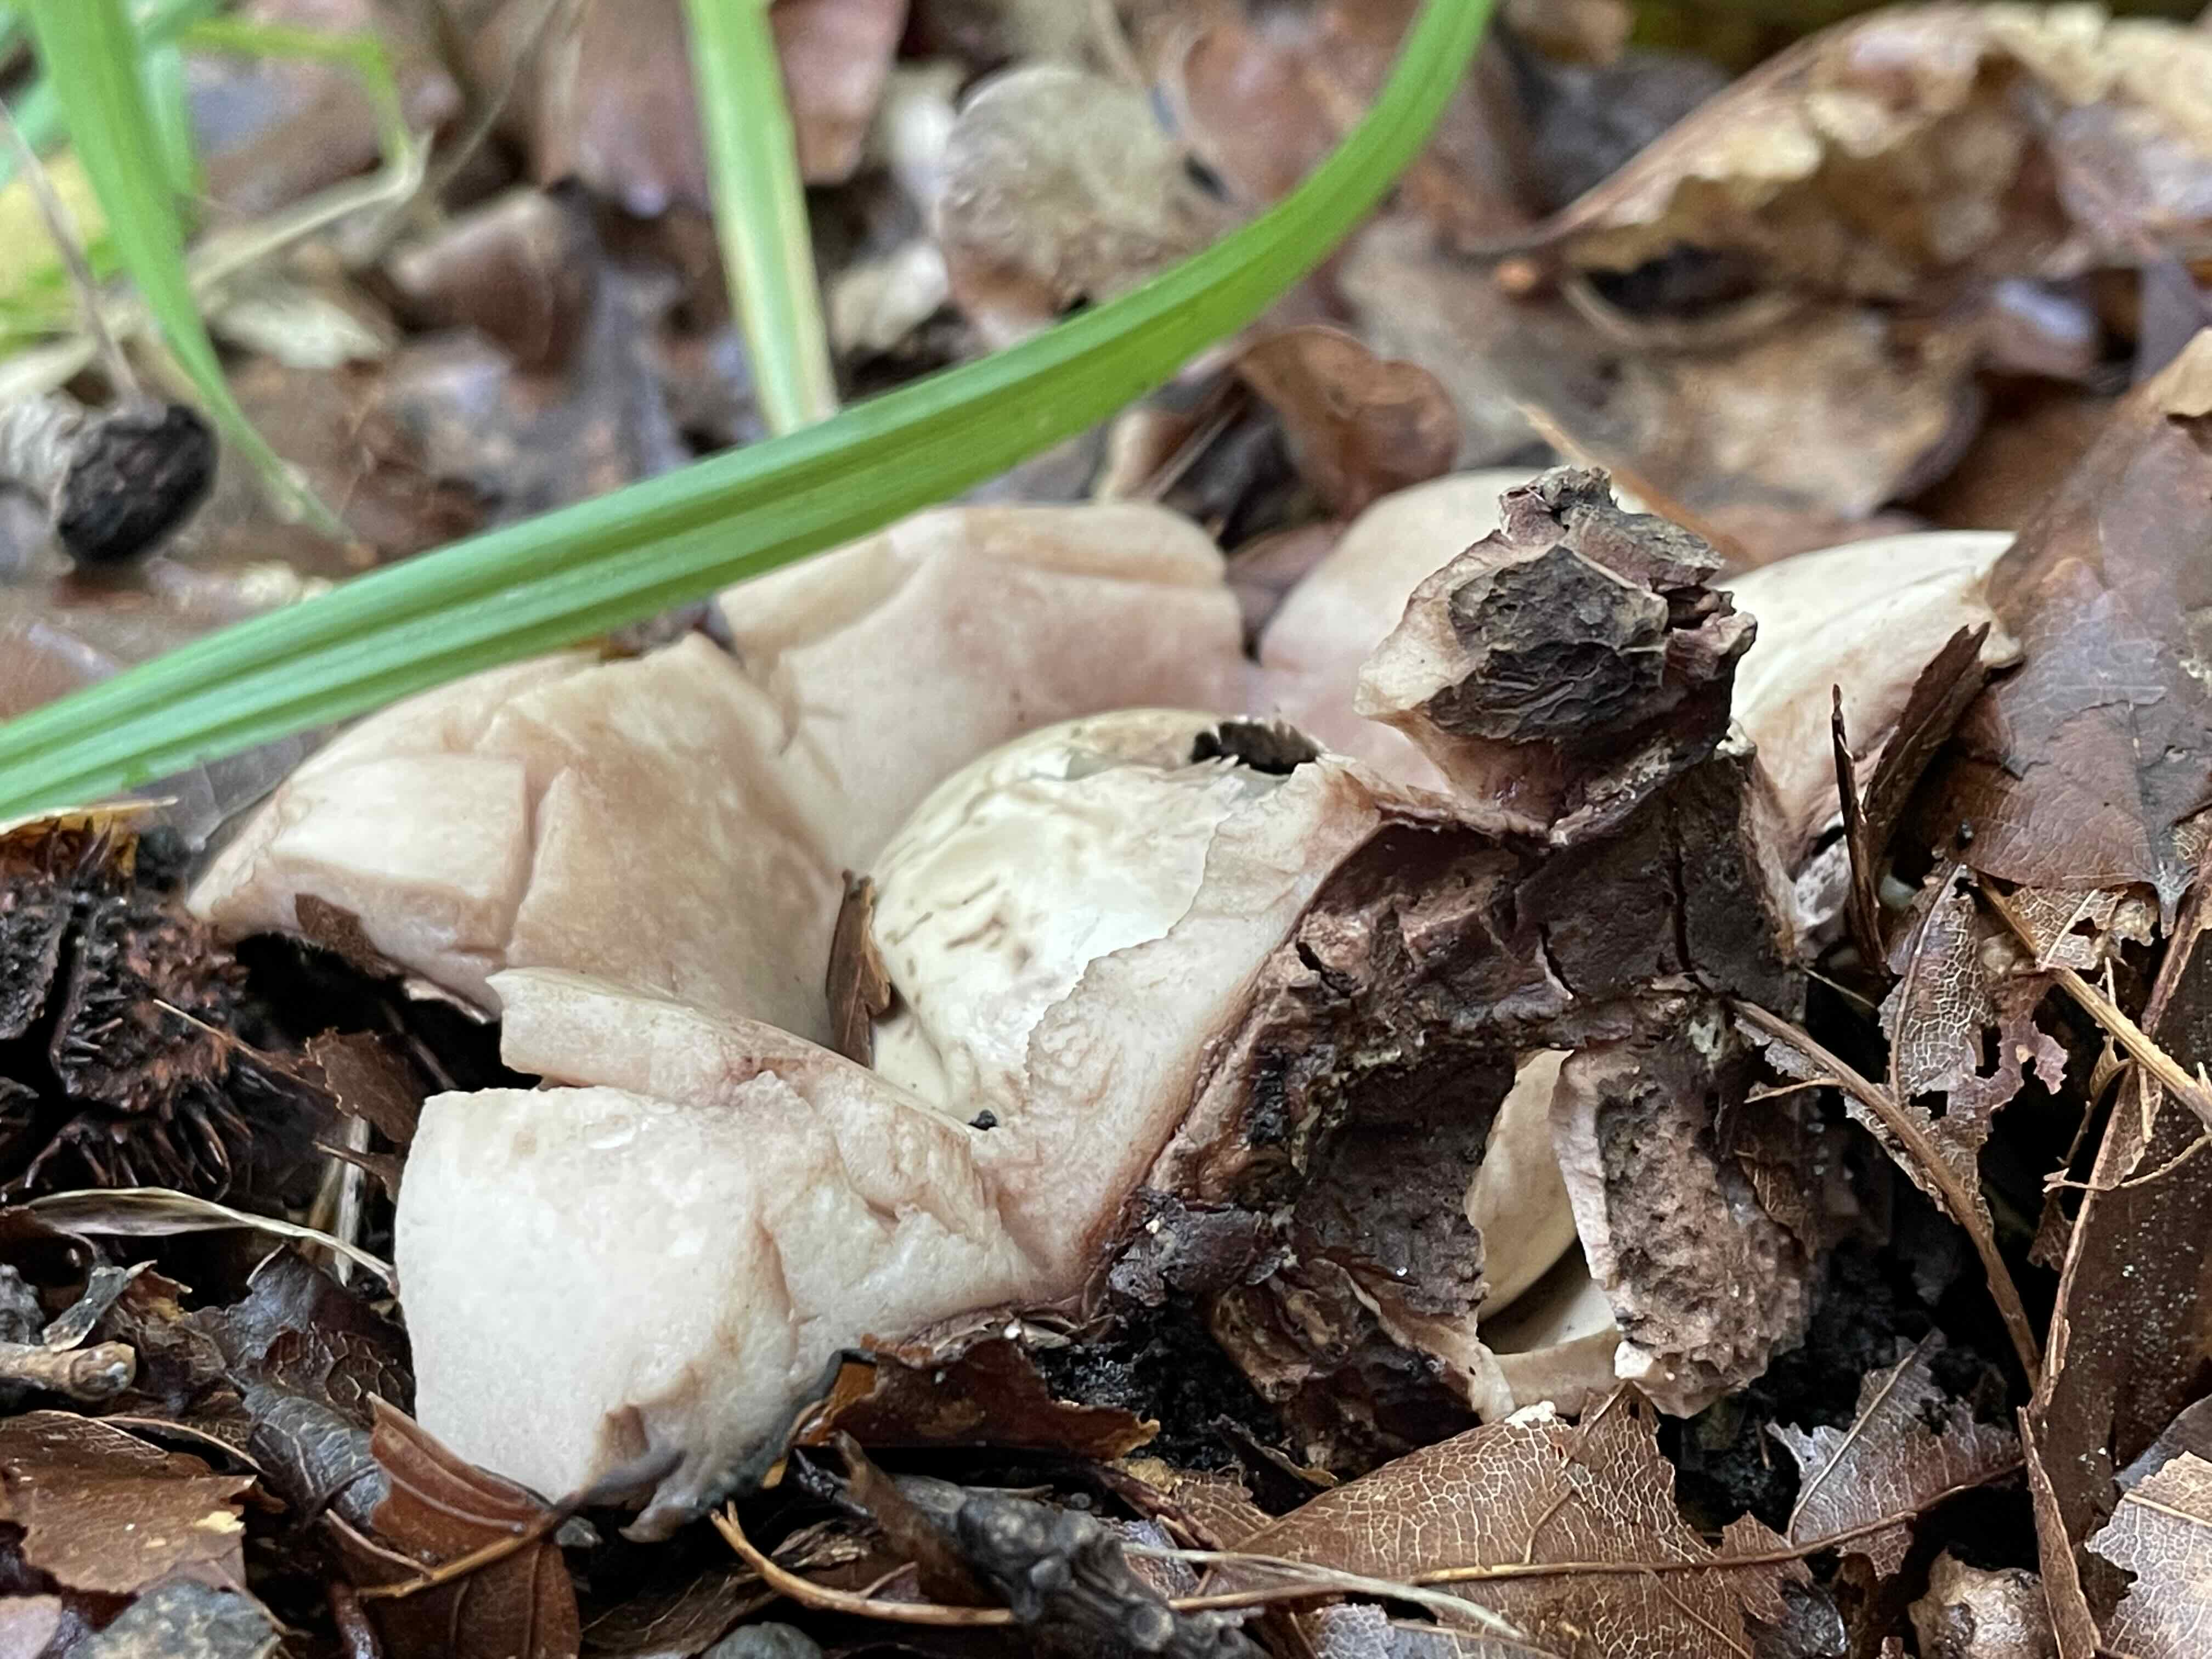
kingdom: Fungi
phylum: Basidiomycota
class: Agaricomycetes
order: Geastrales
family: Geastraceae
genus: Geastrum
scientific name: Geastrum michelianum
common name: kødet stjernebold
